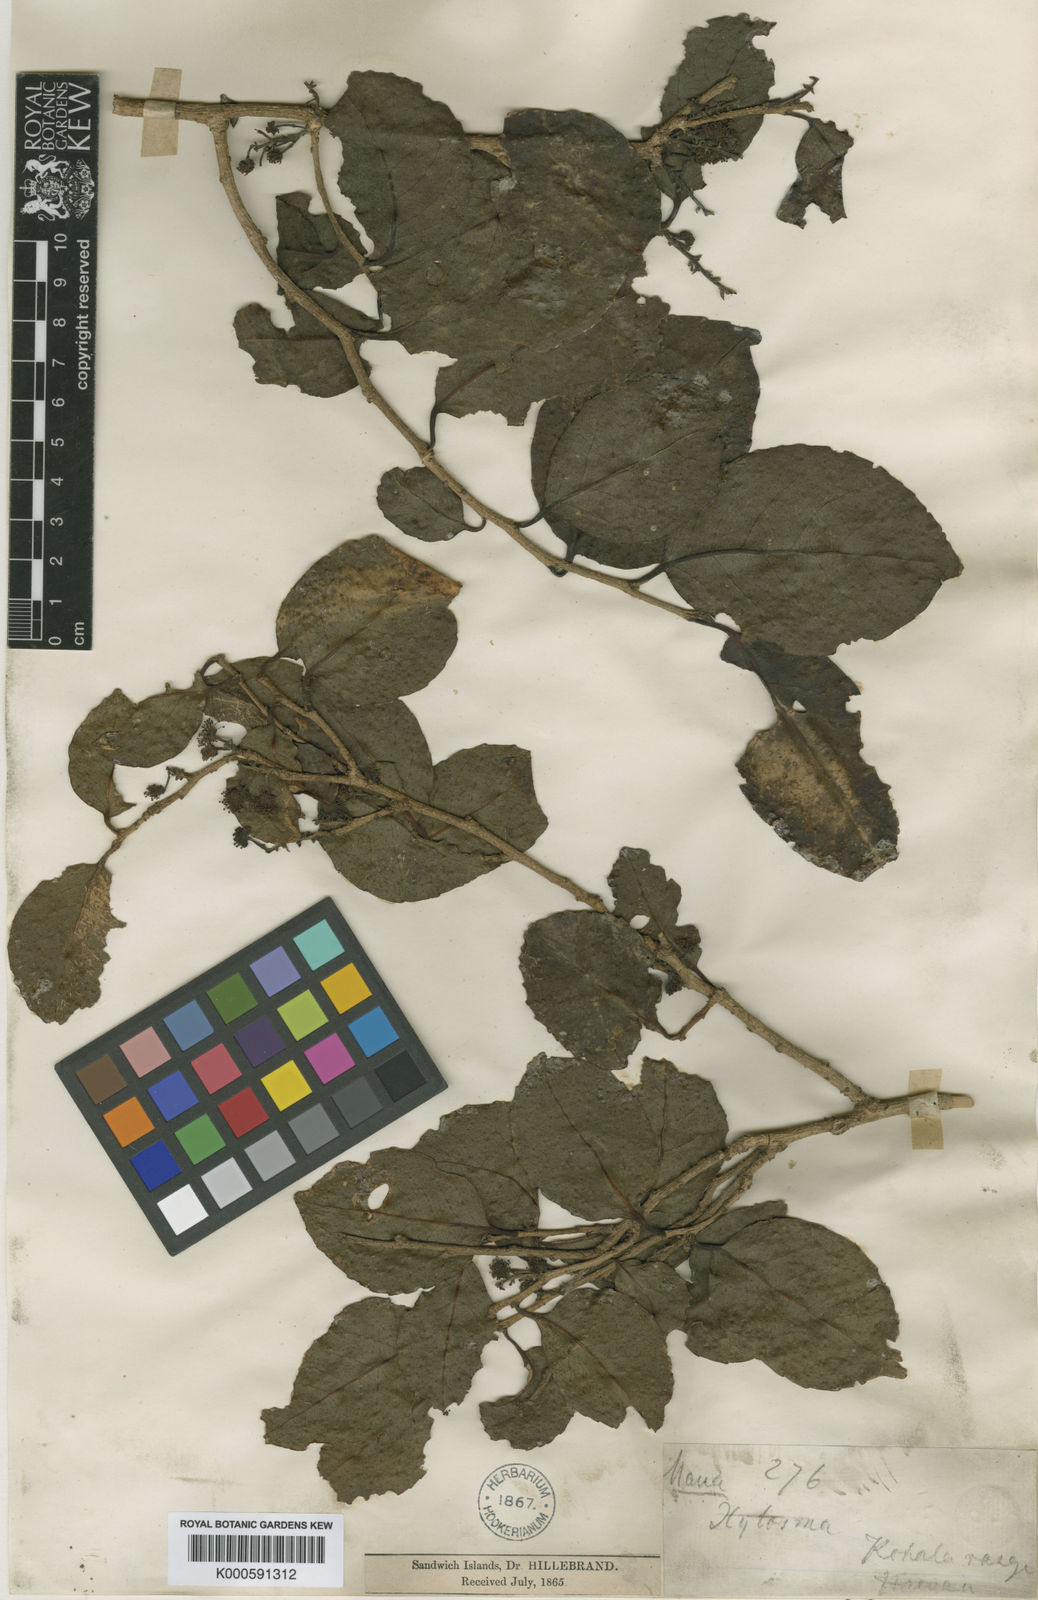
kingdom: Plantae
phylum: Tracheophyta
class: Magnoliopsida
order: Malpighiales
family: Salicaceae
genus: Xylosma
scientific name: Xylosma hawaiense
